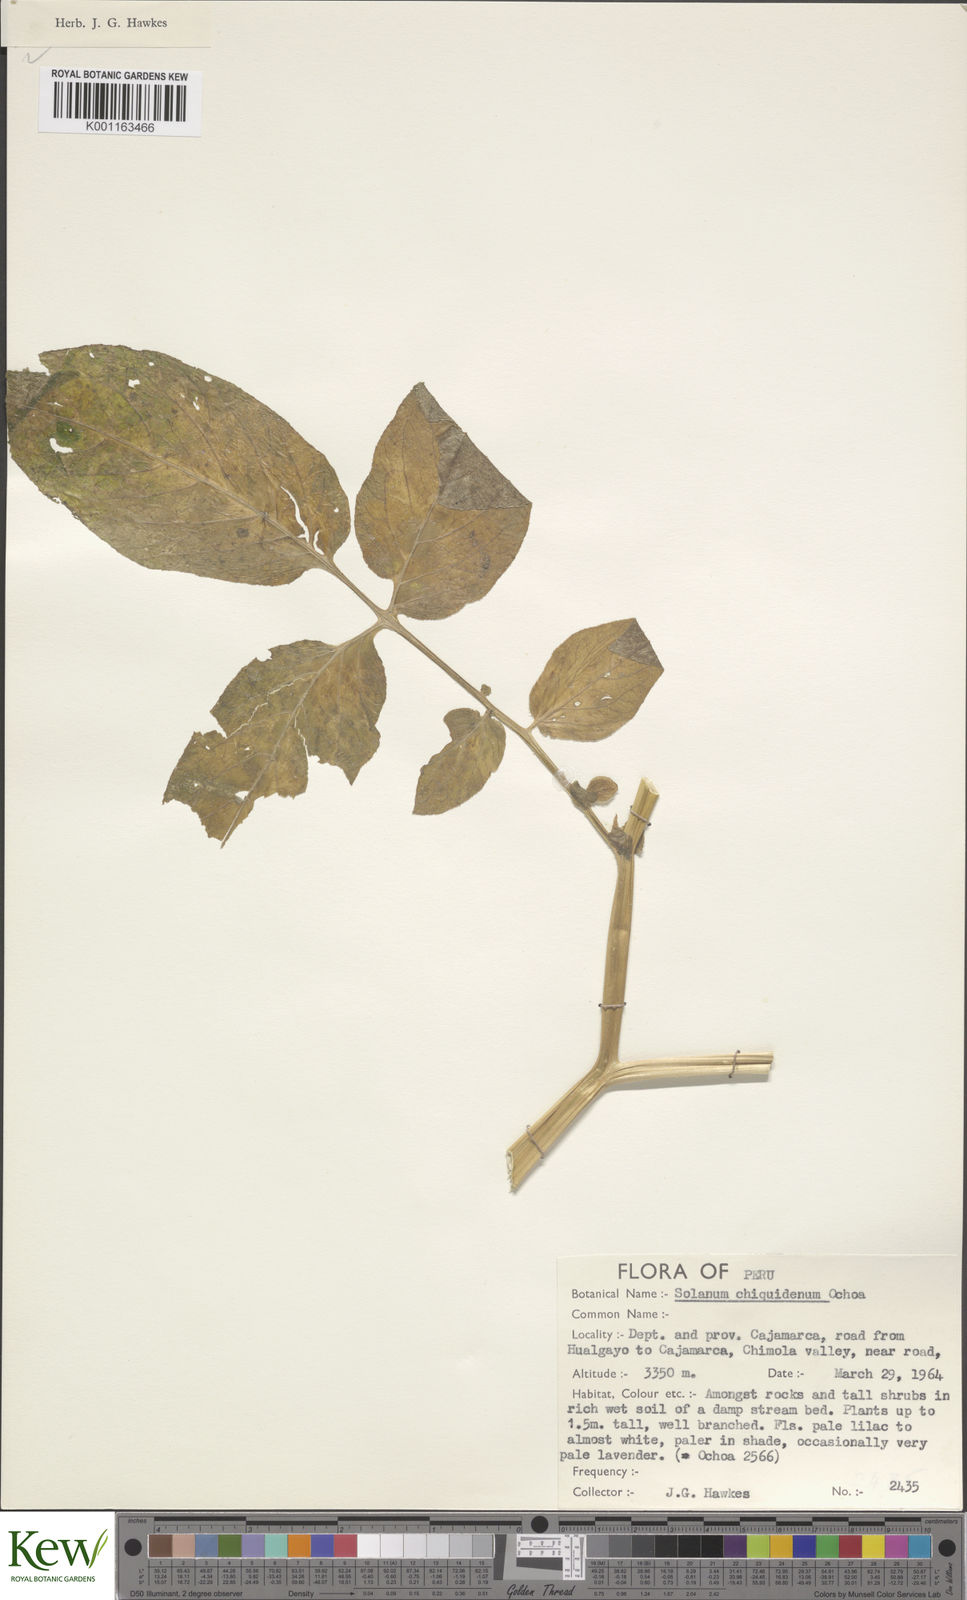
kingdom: Plantae
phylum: Tracheophyta
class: Magnoliopsida
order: Solanales
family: Solanaceae
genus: Solanum
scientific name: Solanum chiquidenum
